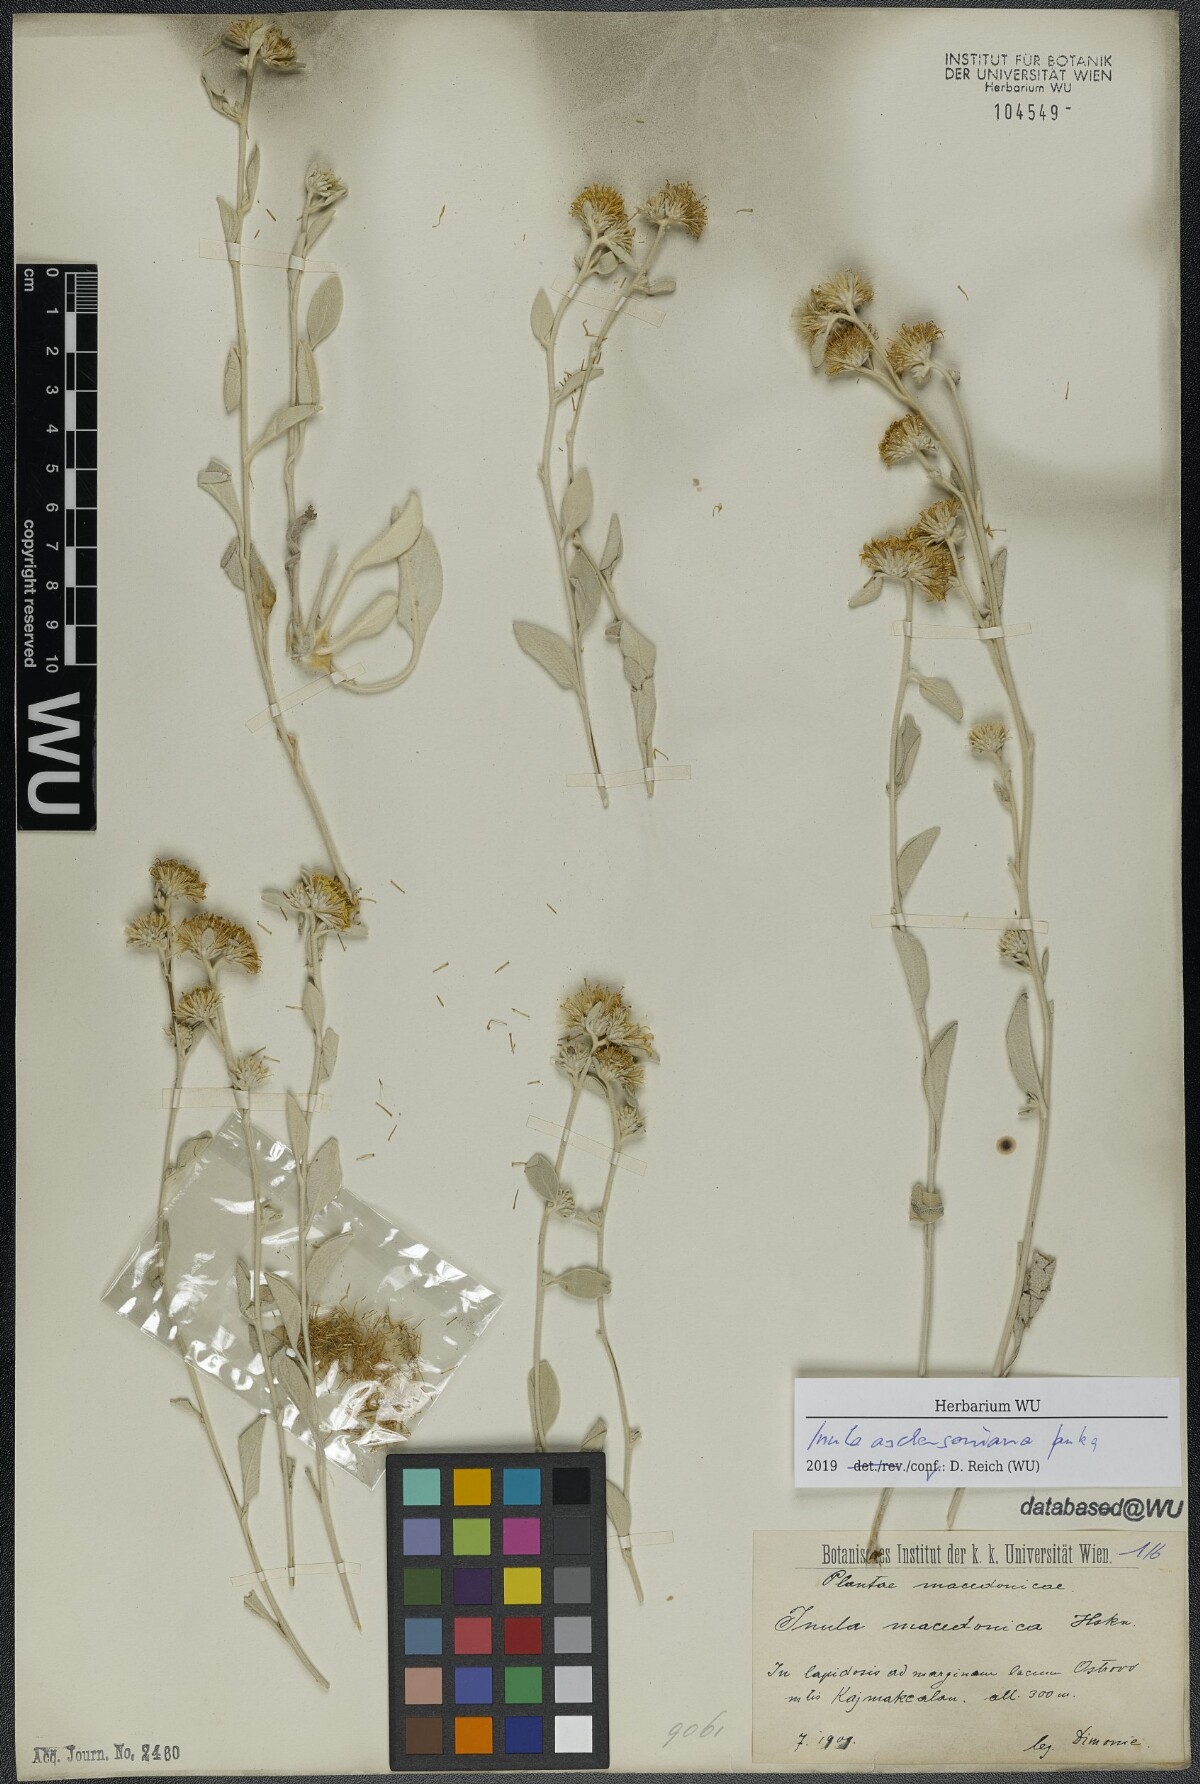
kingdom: Plantae
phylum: Tracheophyta
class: Magnoliopsida
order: Asterales
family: Asteraceae
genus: Pentanema
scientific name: Pentanema aschersonianum
